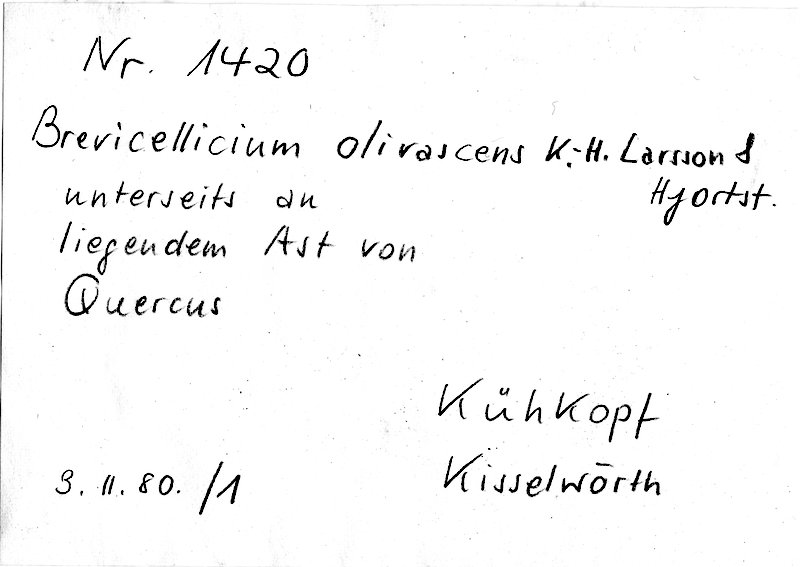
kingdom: Fungi
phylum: Basidiomycota
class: Agaricomycetes
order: Trechisporales
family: Hydnodontaceae
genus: Brevicellicium
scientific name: Brevicellicium olivascens
